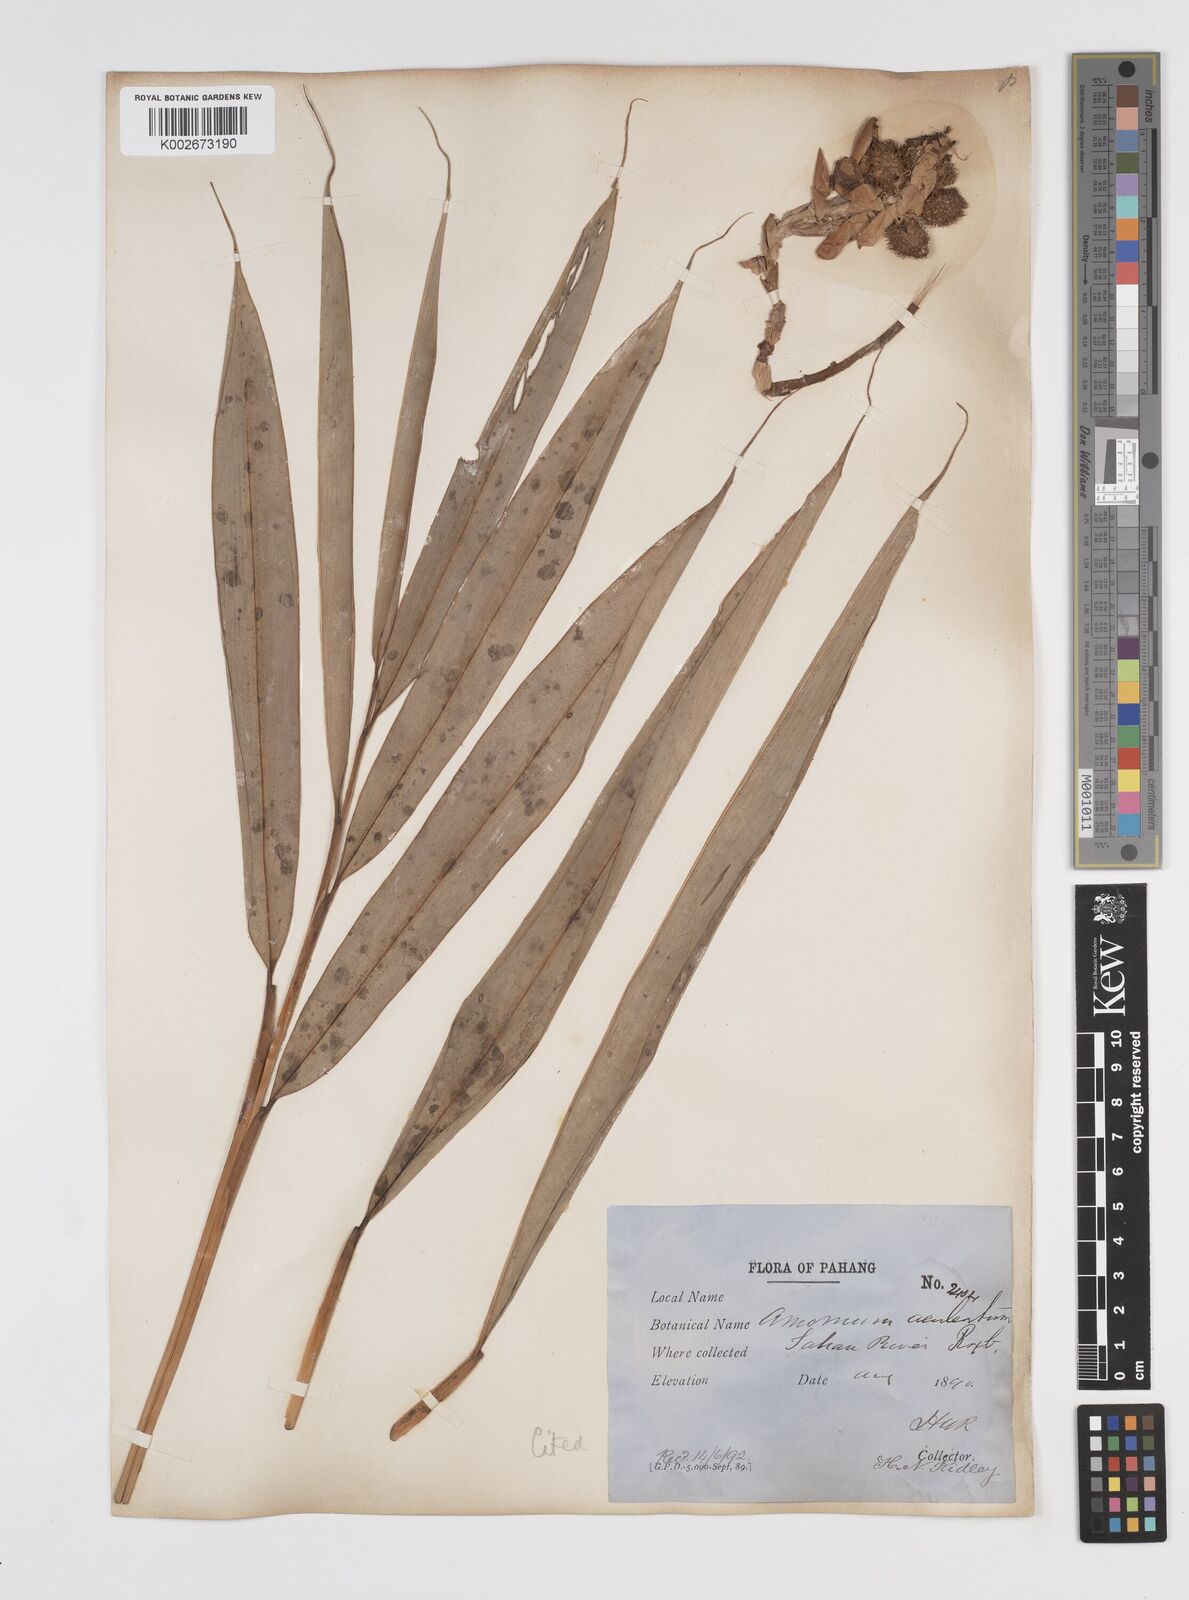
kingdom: Plantae
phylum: Tracheophyta
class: Liliopsida
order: Zingiberales
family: Zingiberaceae
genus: Wurfbainia
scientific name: Wurfbainia uliginosa
